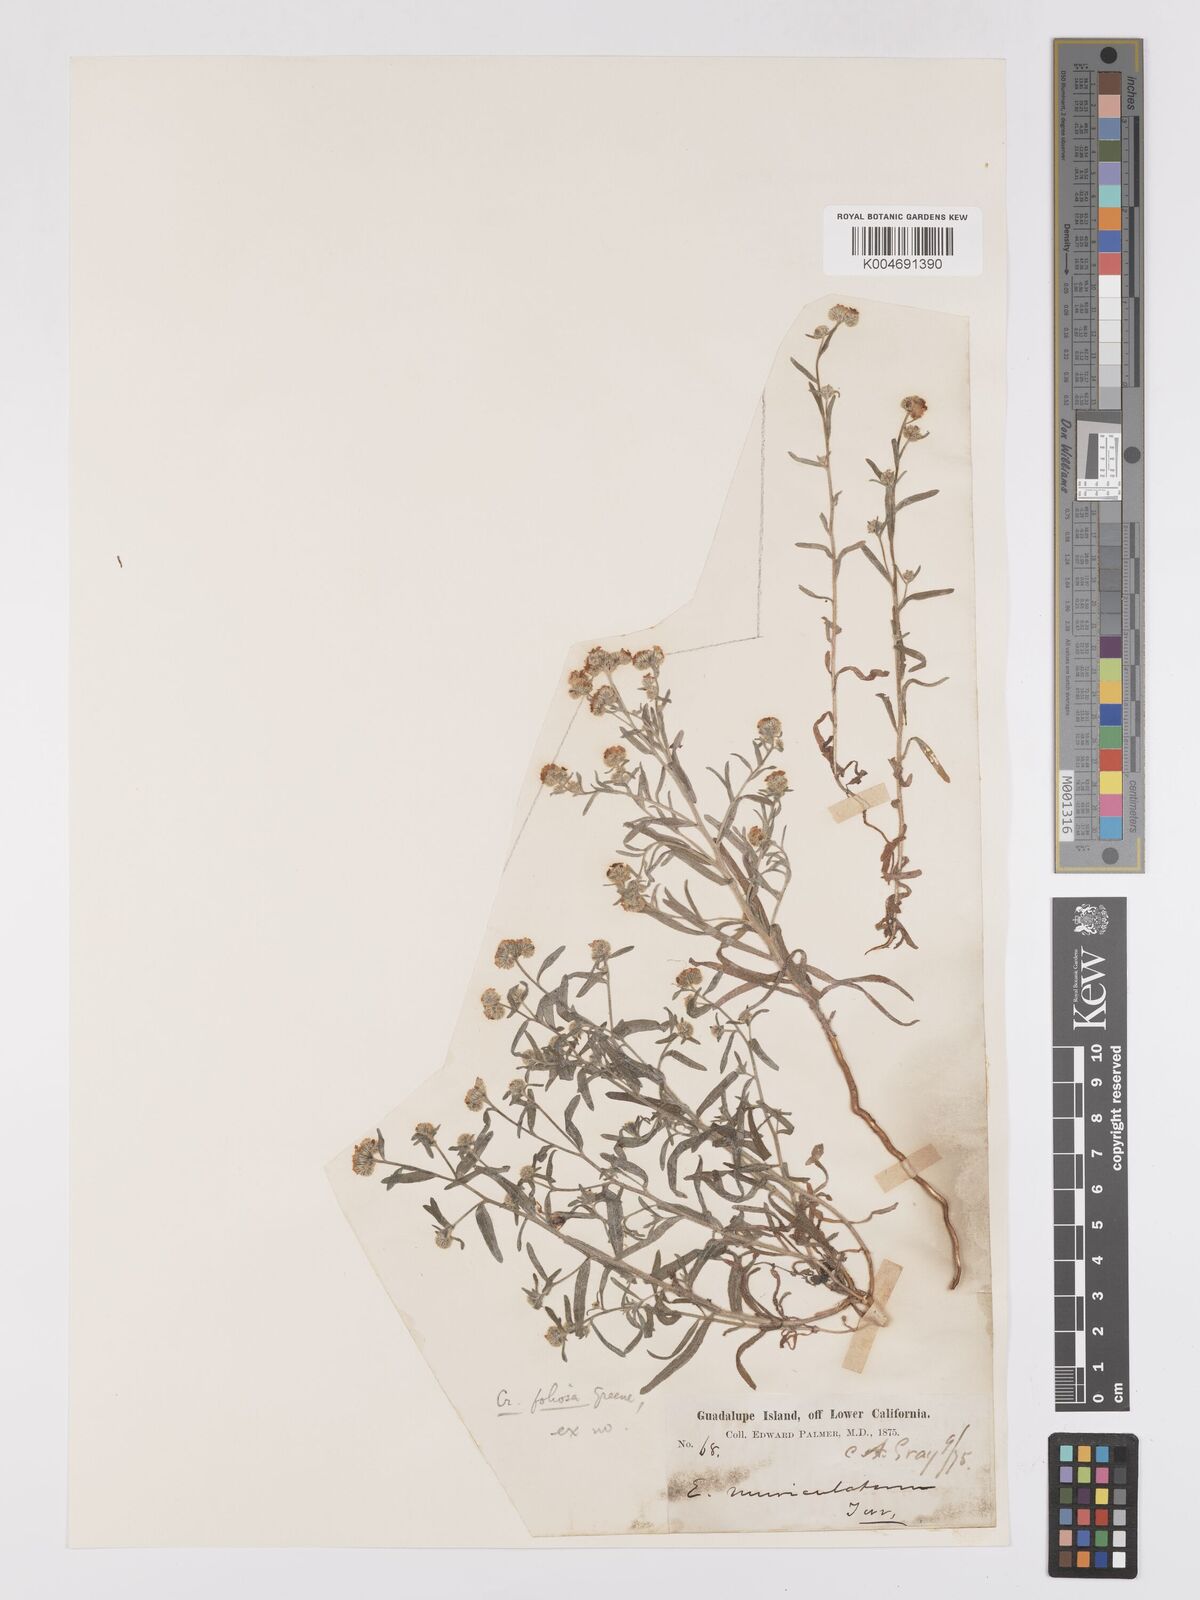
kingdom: Plantae
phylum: Tracheophyta
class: Magnoliopsida
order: Boraginales
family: Boraginaceae
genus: Cryptantha
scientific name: Cryptantha foliosa
